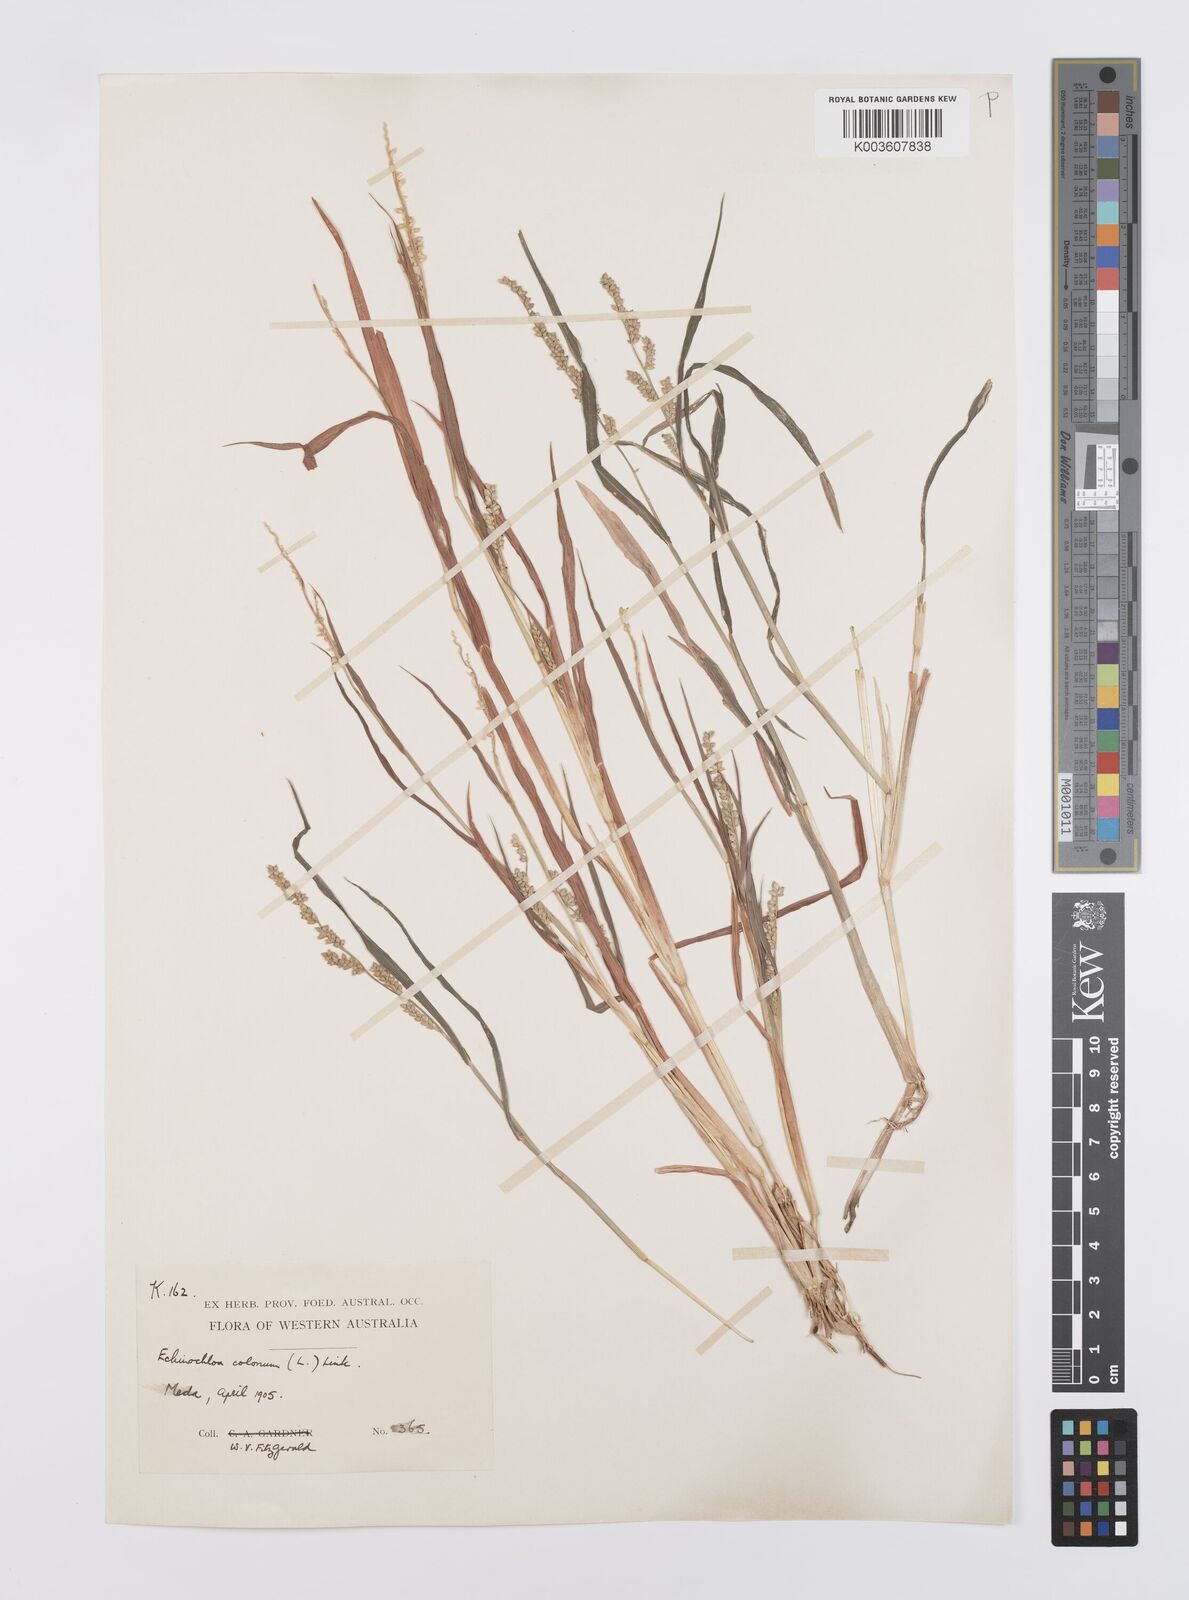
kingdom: Plantae
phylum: Tracheophyta
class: Liliopsida
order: Poales
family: Poaceae
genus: Echinochloa
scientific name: Echinochloa colonum
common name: Jungle rice
